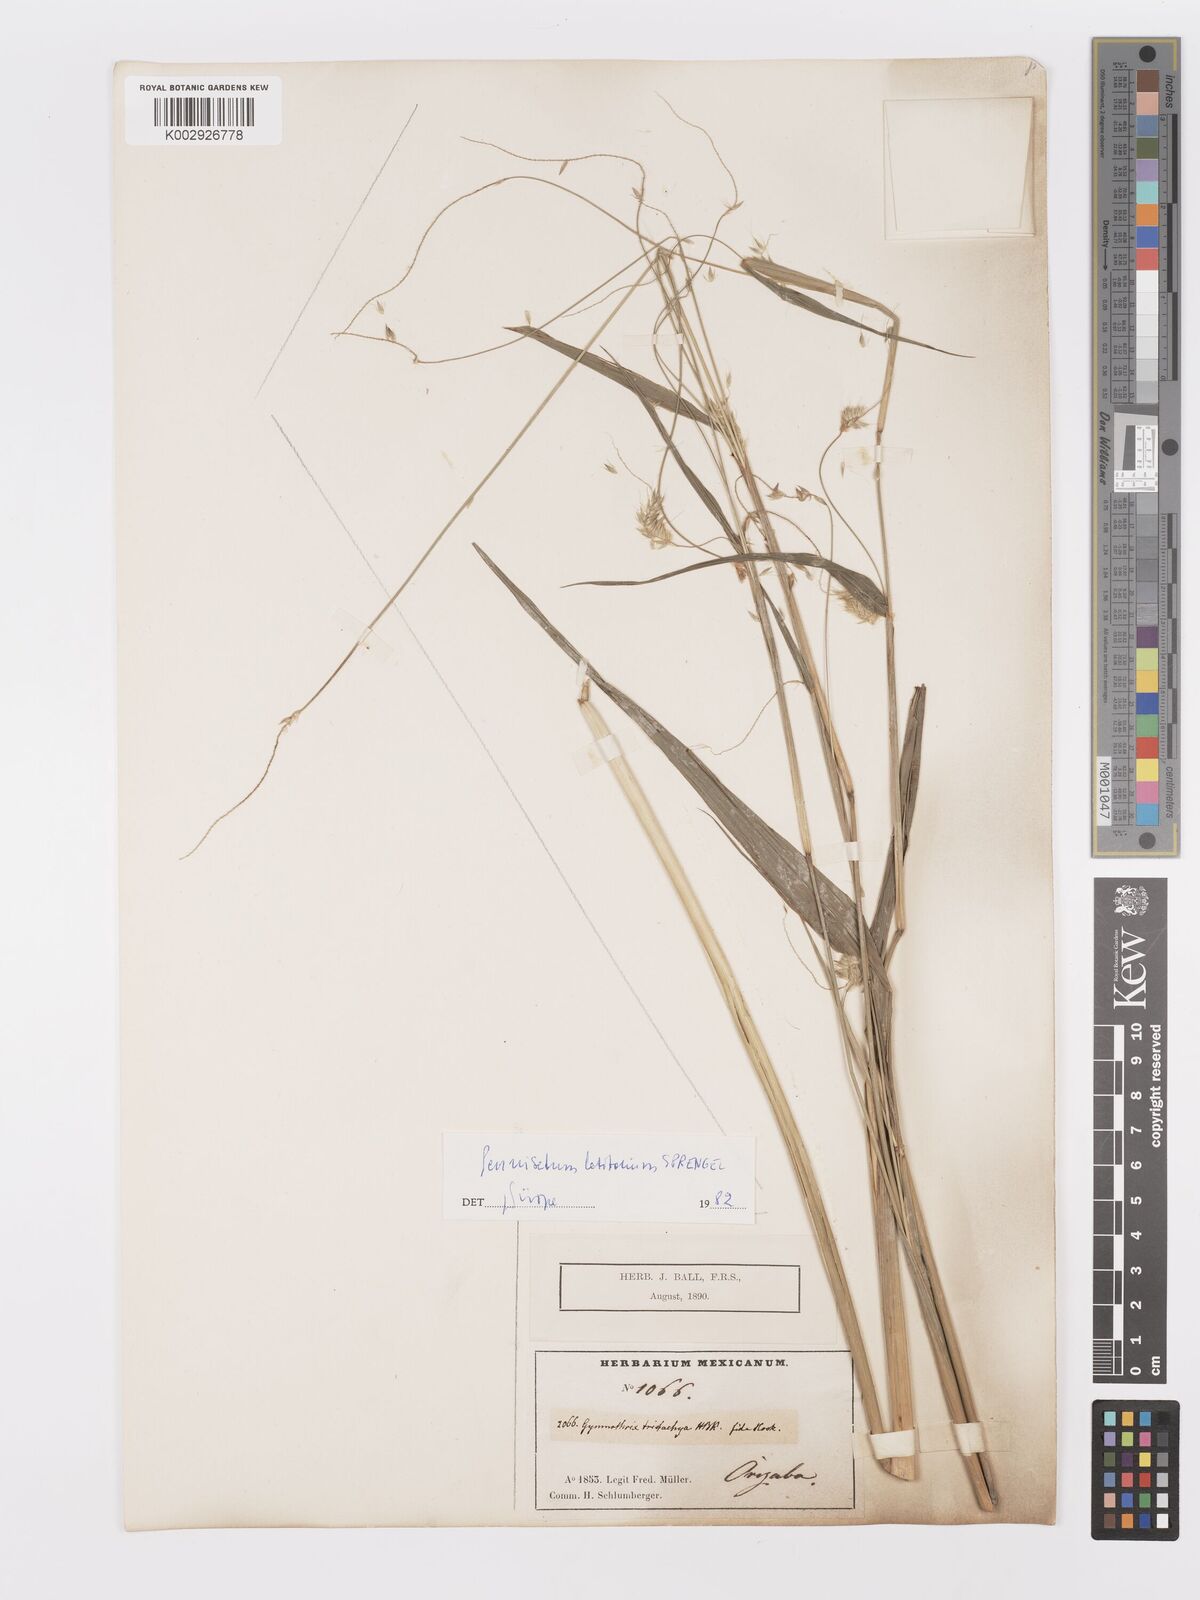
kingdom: Plantae
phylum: Tracheophyta
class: Liliopsida
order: Poales
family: Poaceae
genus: Cenchrus
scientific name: Cenchrus latifolius
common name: Sandbur
